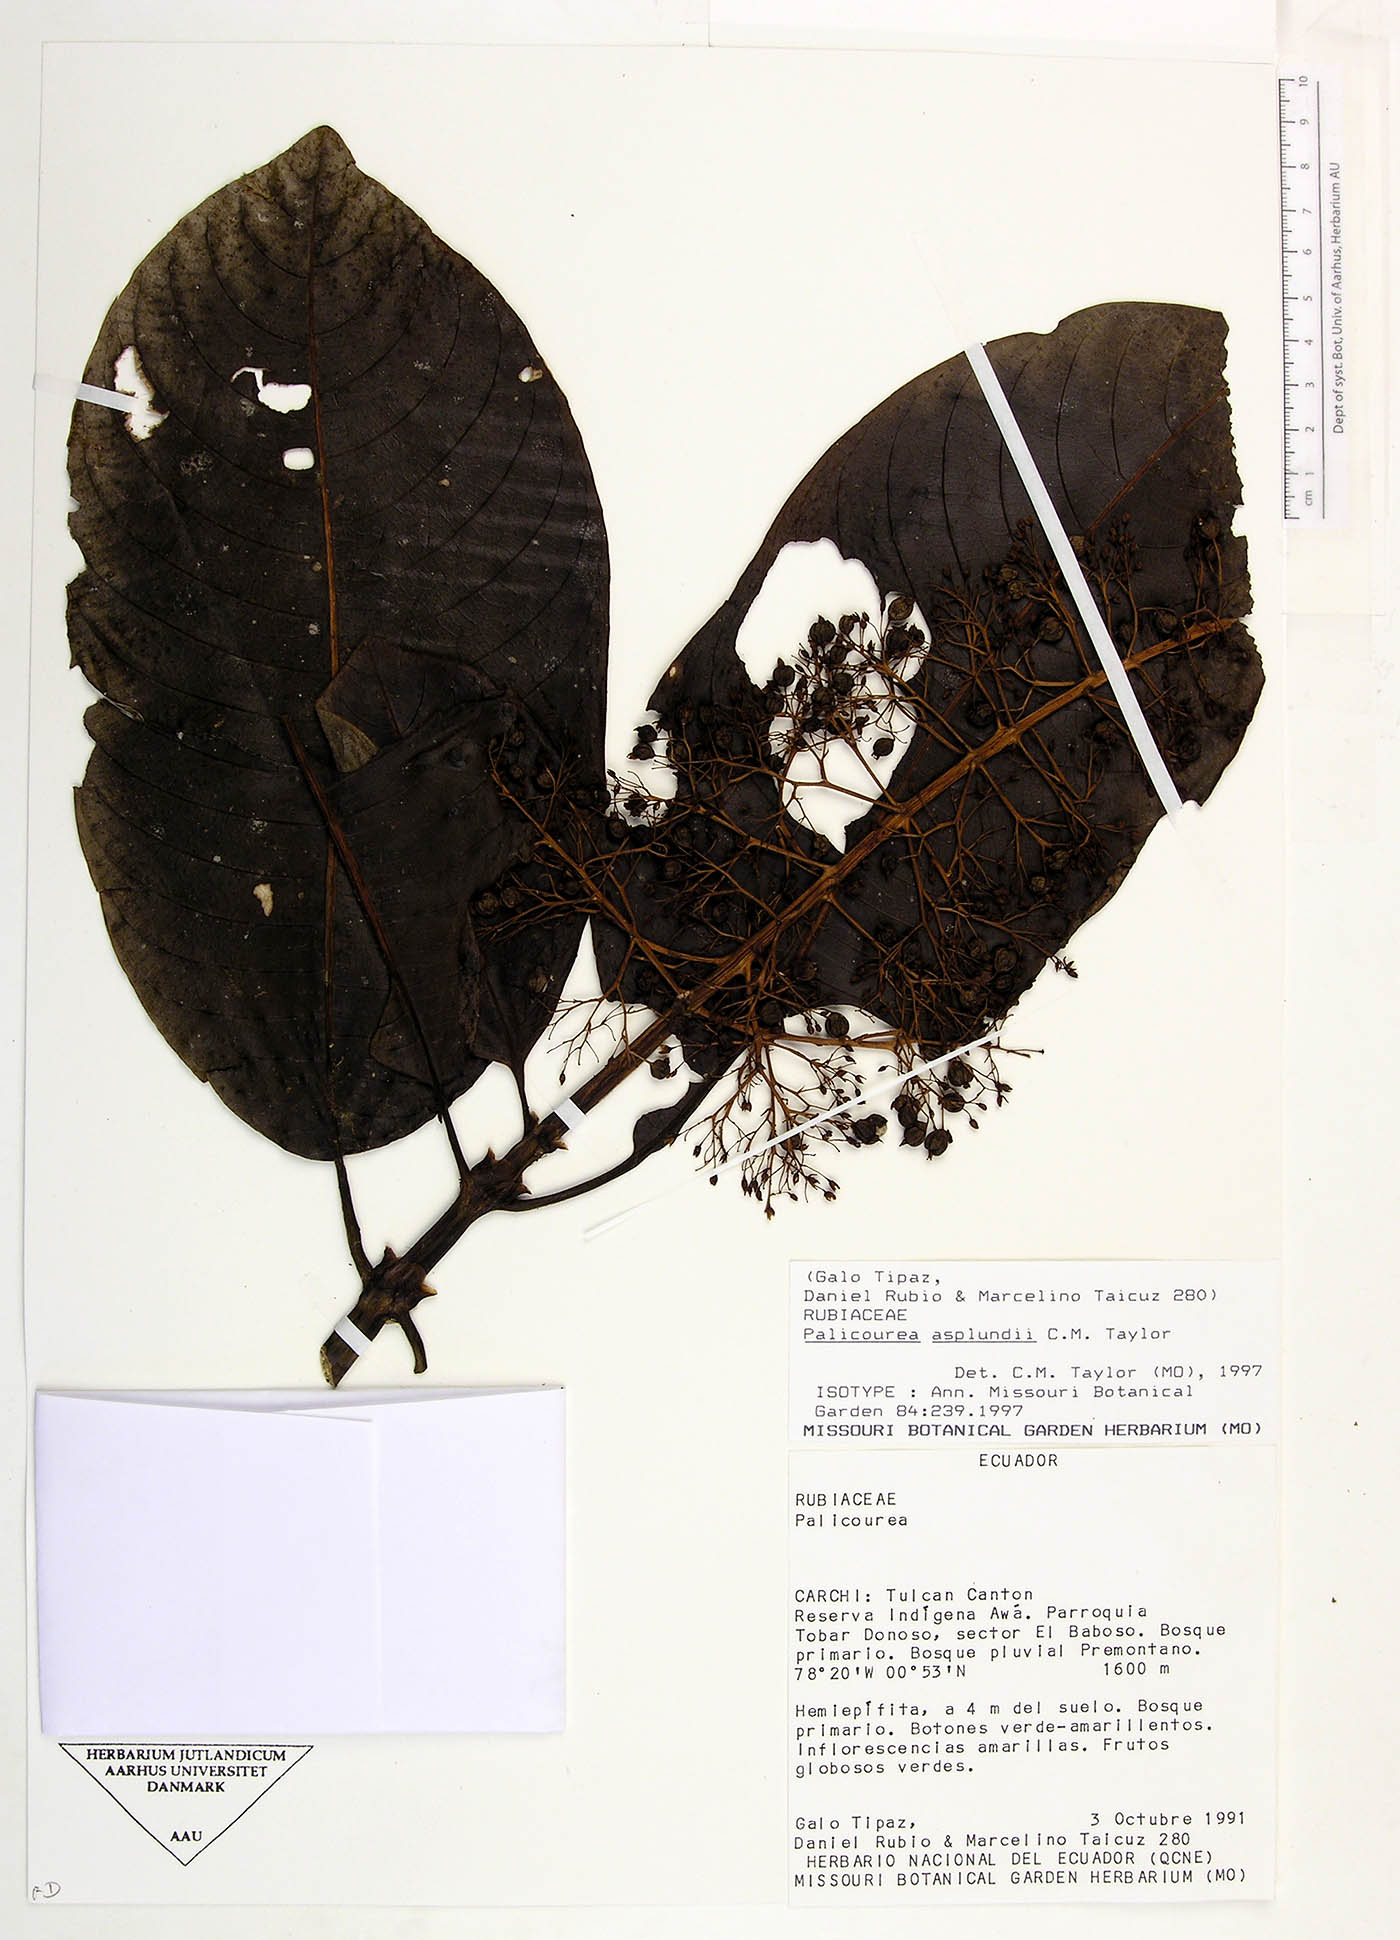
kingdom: Plantae
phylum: Tracheophyta
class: Magnoliopsida
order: Gentianales
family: Rubiaceae
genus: Palicourea
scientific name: Palicourea asplundii
